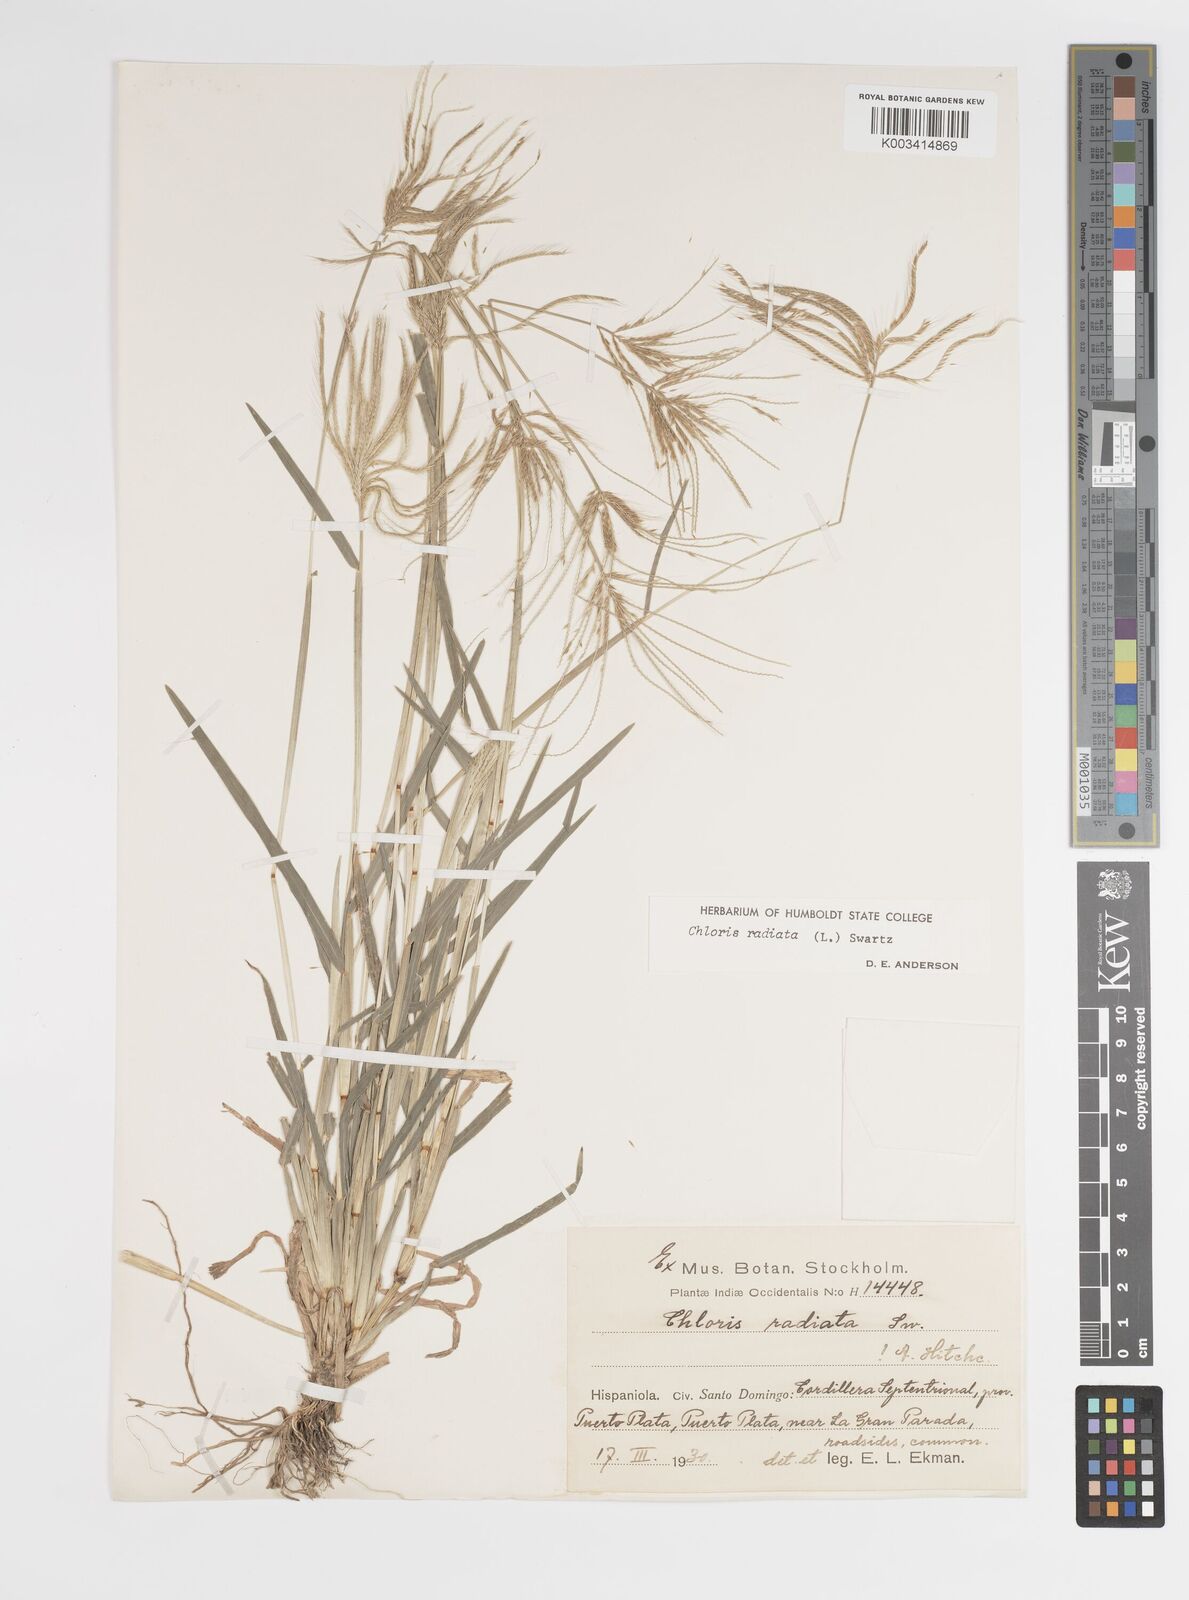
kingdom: Plantae
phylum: Tracheophyta
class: Liliopsida
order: Poales
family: Poaceae
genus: Chloris
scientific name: Chloris radiata
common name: Radiate fingergrass
